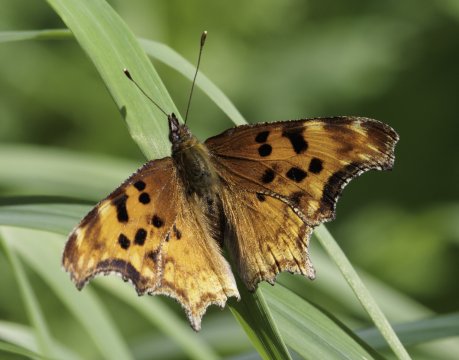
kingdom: Animalia
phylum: Arthropoda
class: Insecta
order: Lepidoptera
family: Nymphalidae
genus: Polygonia
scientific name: Polygonia gracilis
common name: Hoary Comma
